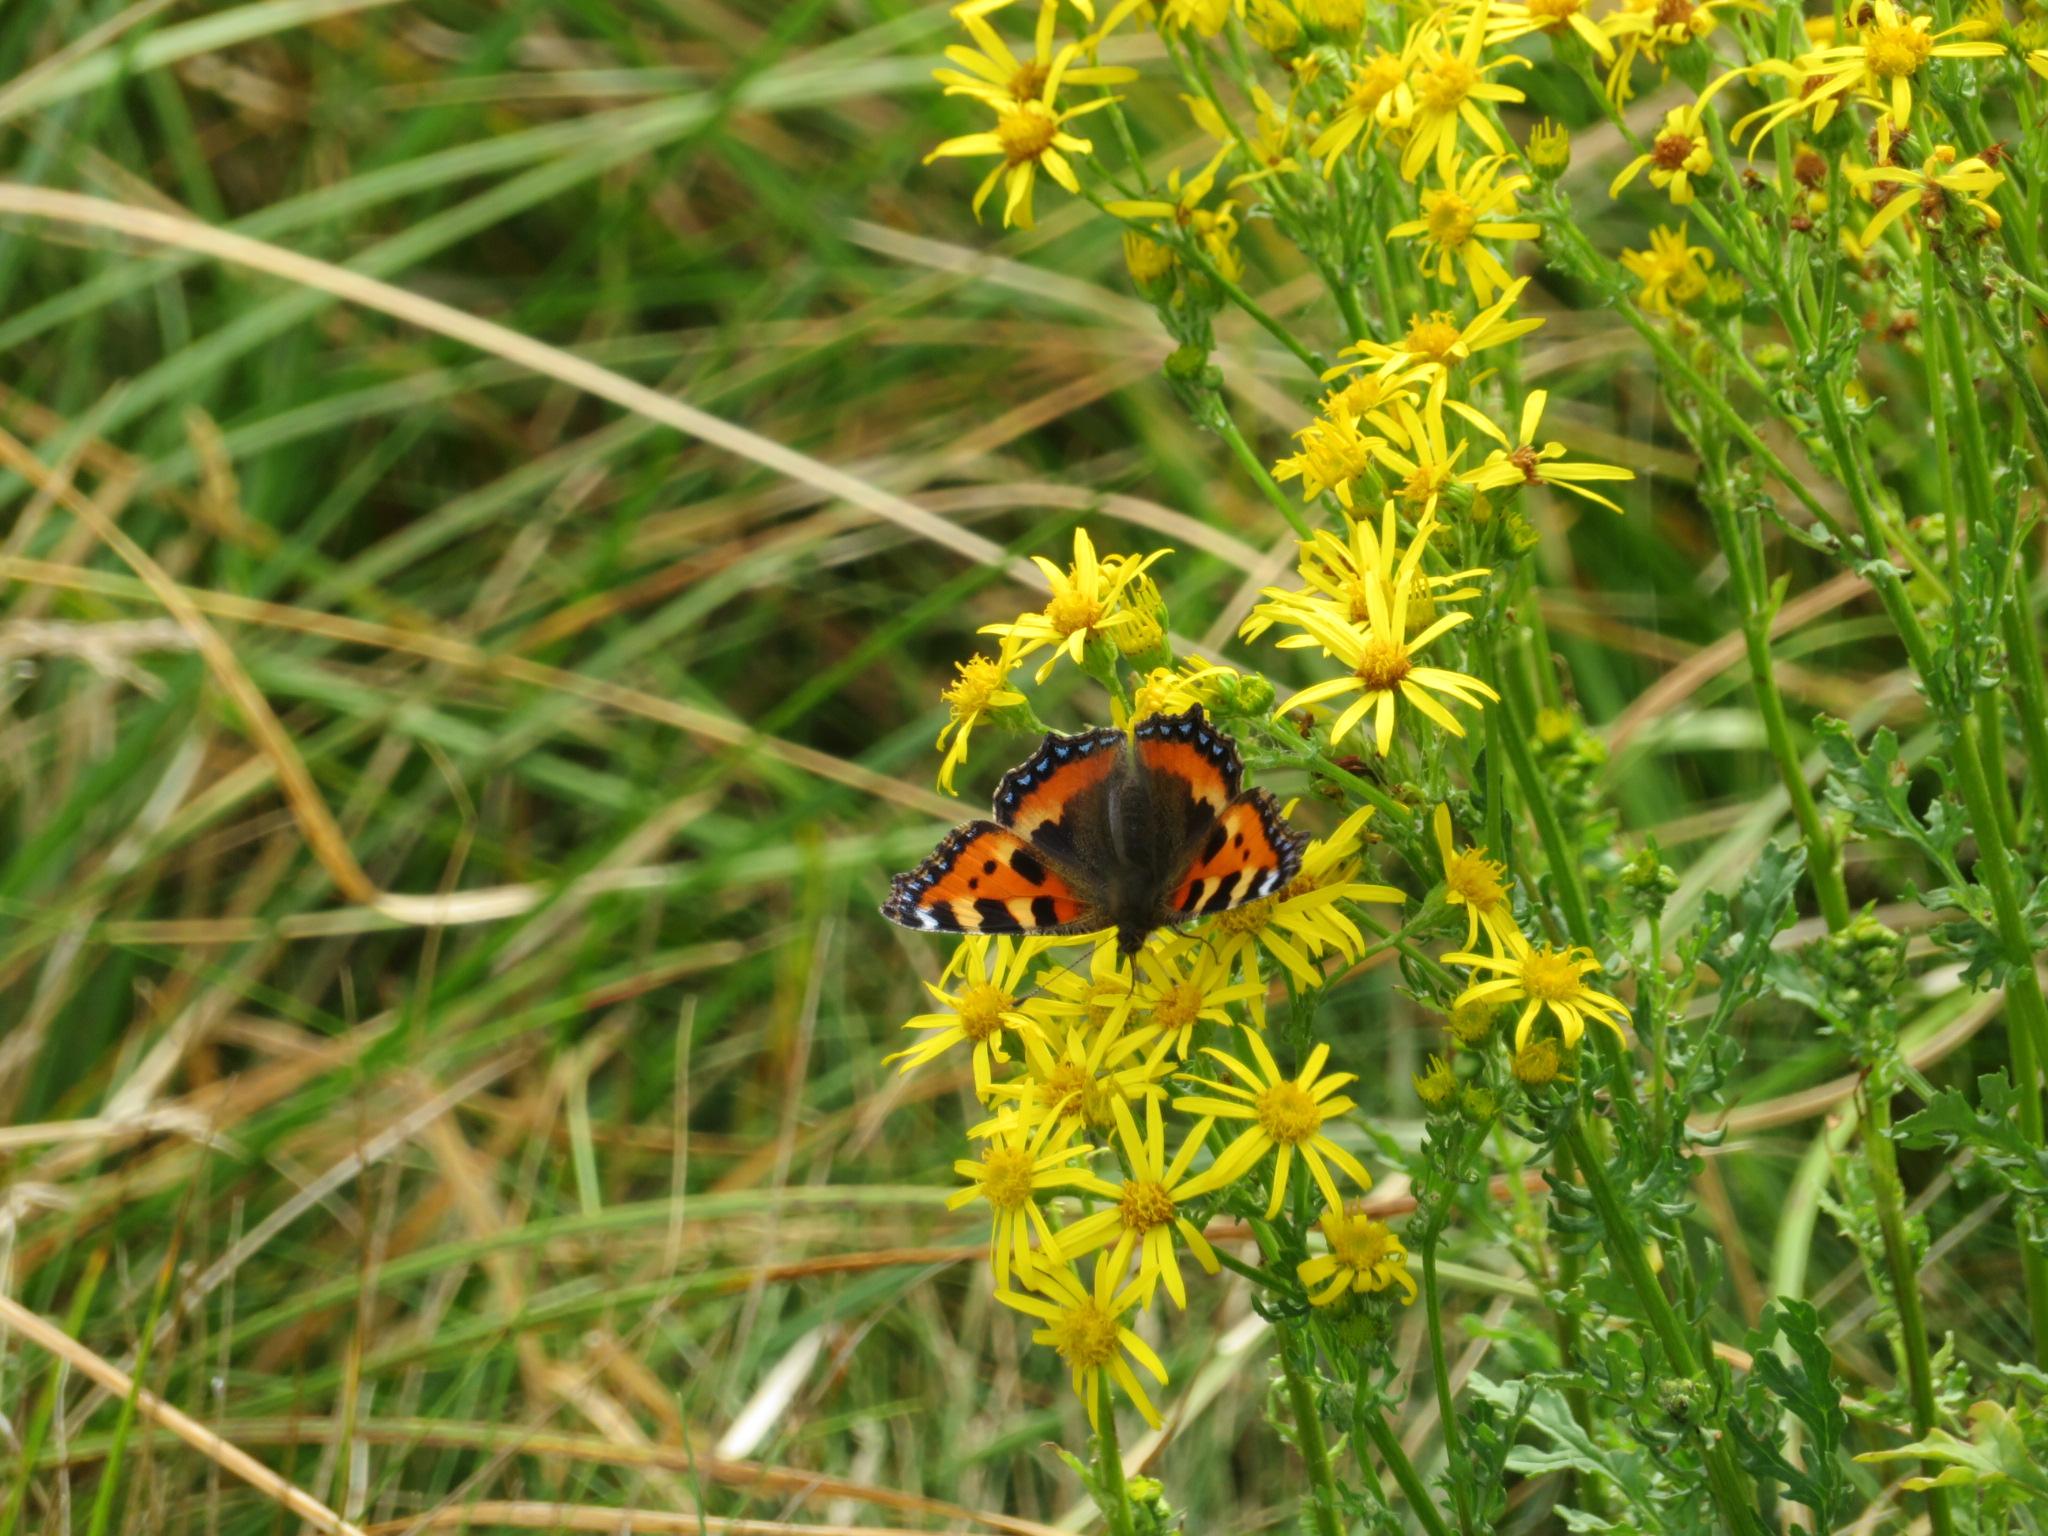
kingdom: Animalia
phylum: Arthropoda
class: Insecta
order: Lepidoptera
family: Nymphalidae
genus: Aglais
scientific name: Aglais urticae
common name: Nældens takvinge
